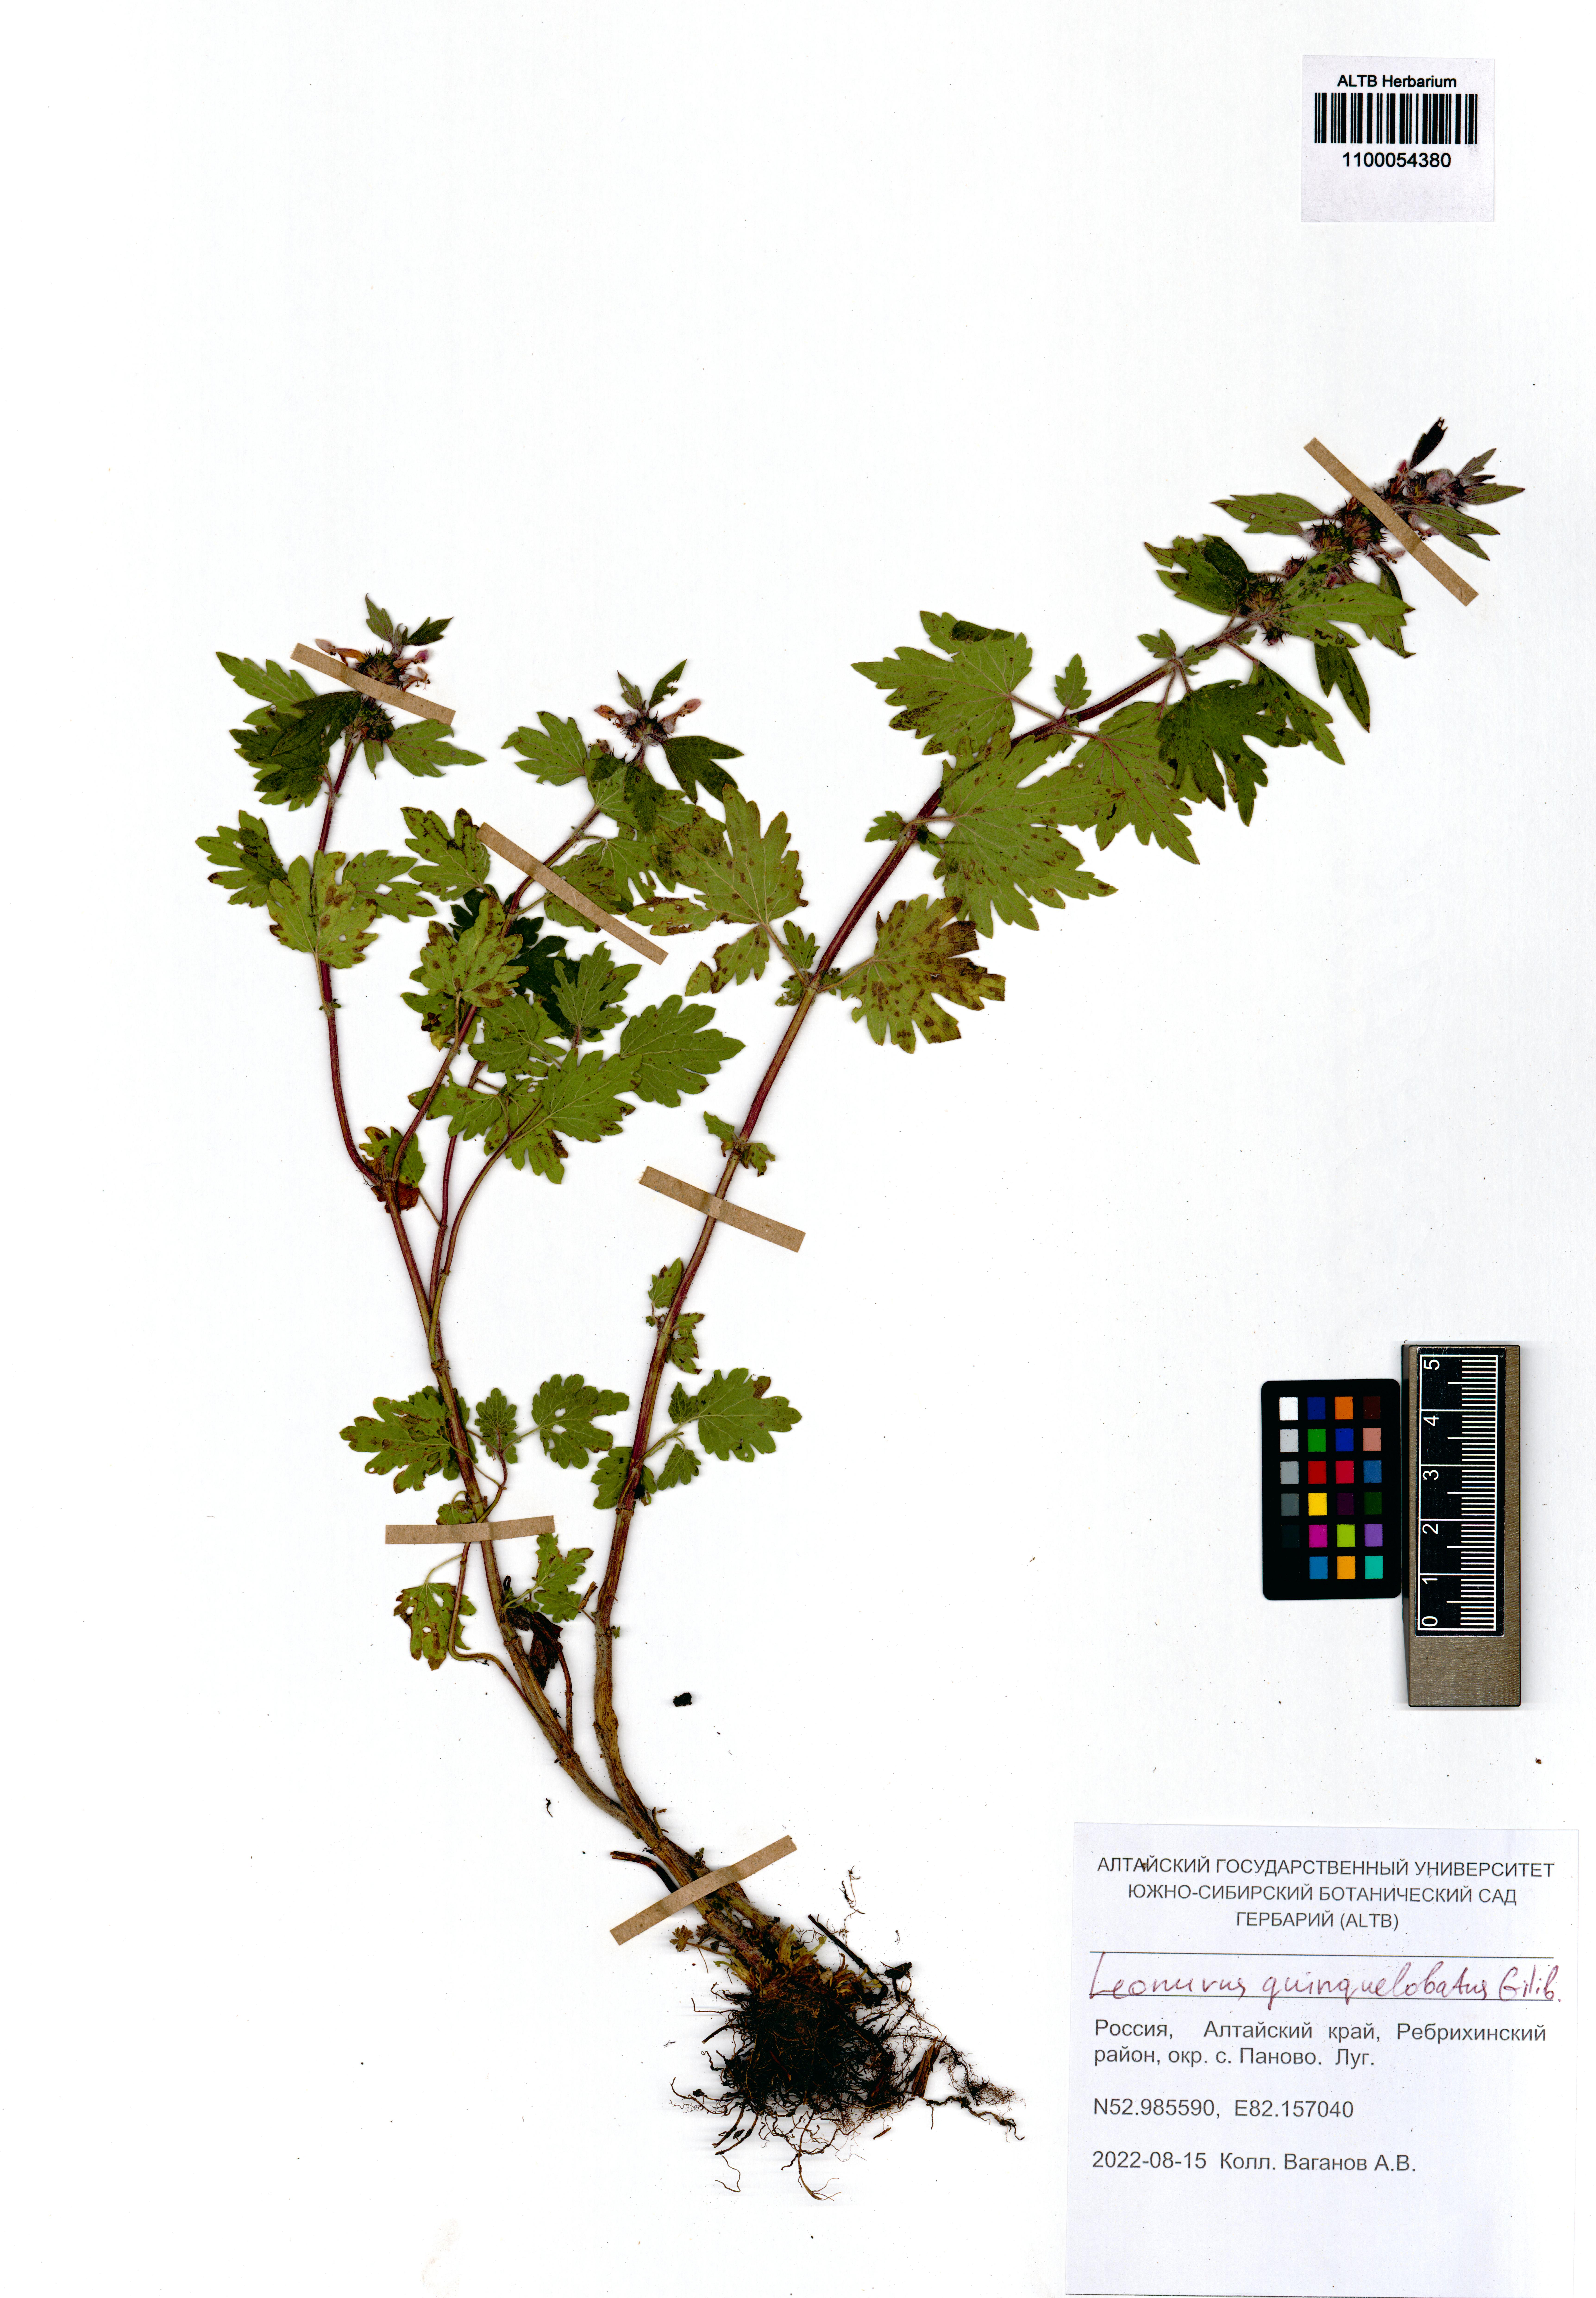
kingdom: Plantae
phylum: Tracheophyta
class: Magnoliopsida
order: Lamiales
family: Lamiaceae
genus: Leonurus
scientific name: Leonurus quinquelobatus
